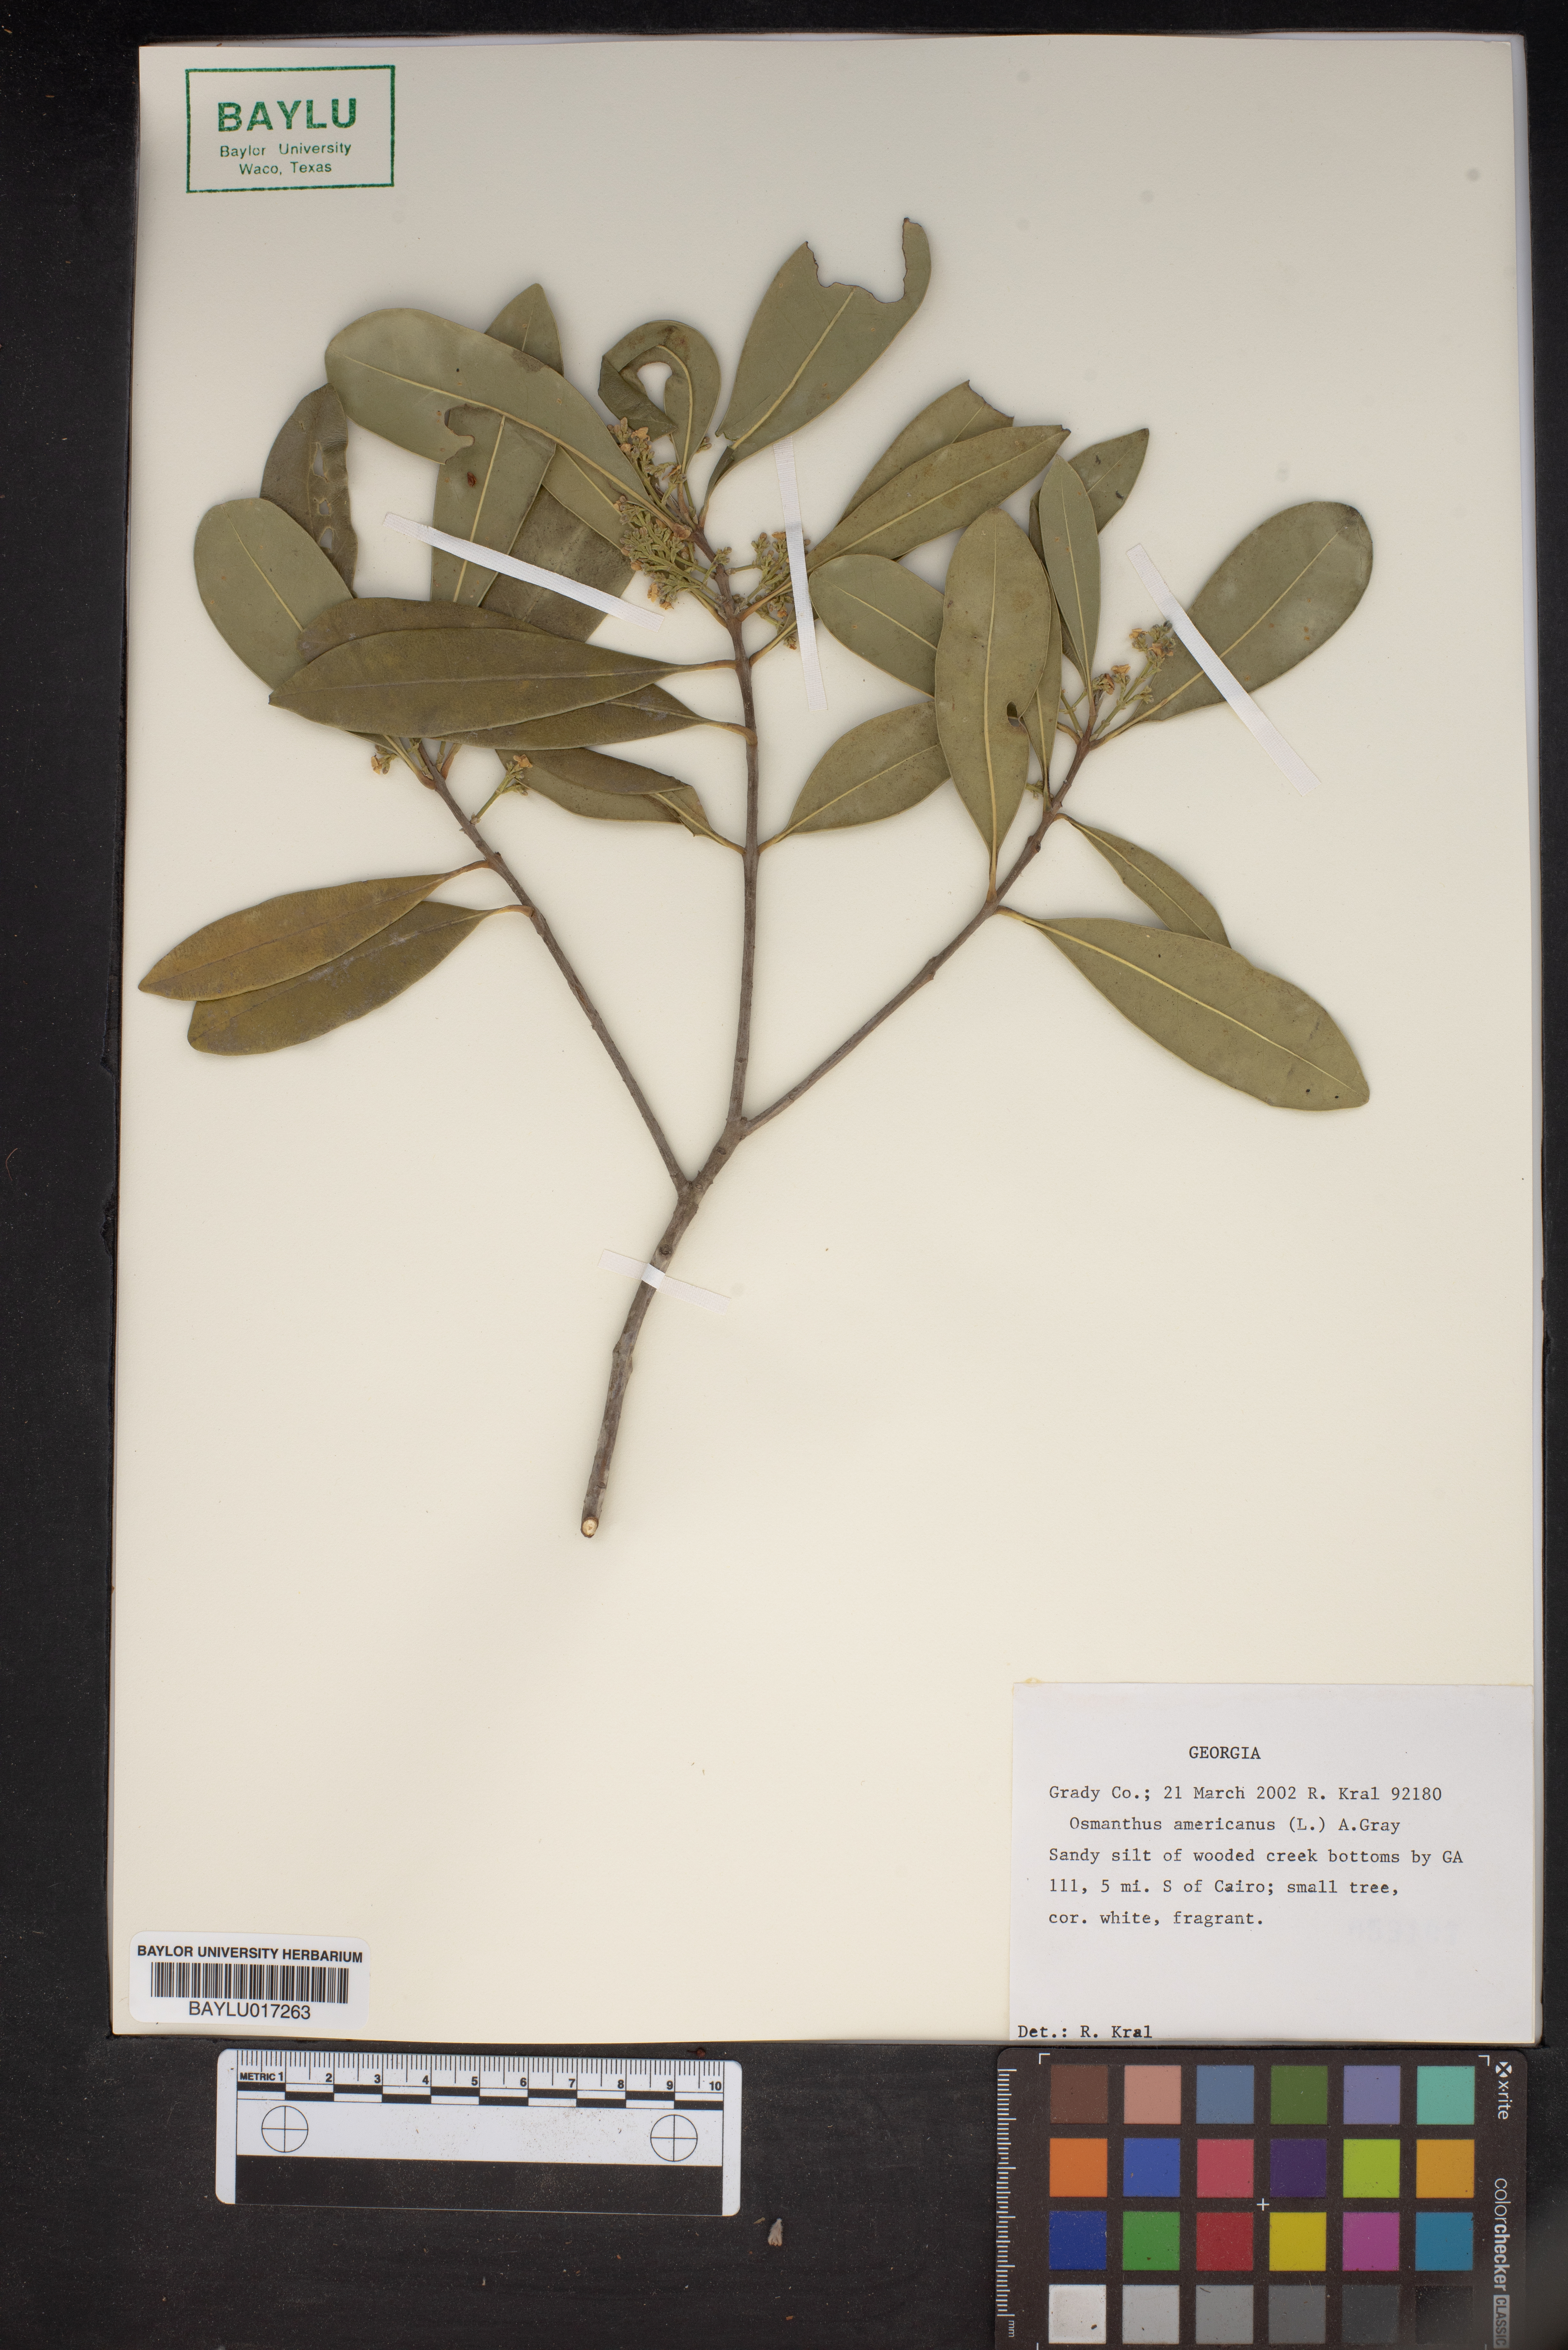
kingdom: Plantae
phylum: Tracheophyta
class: Magnoliopsida
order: Lamiales
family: Oleaceae
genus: Osmanthus
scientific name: Osmanthus americanus
